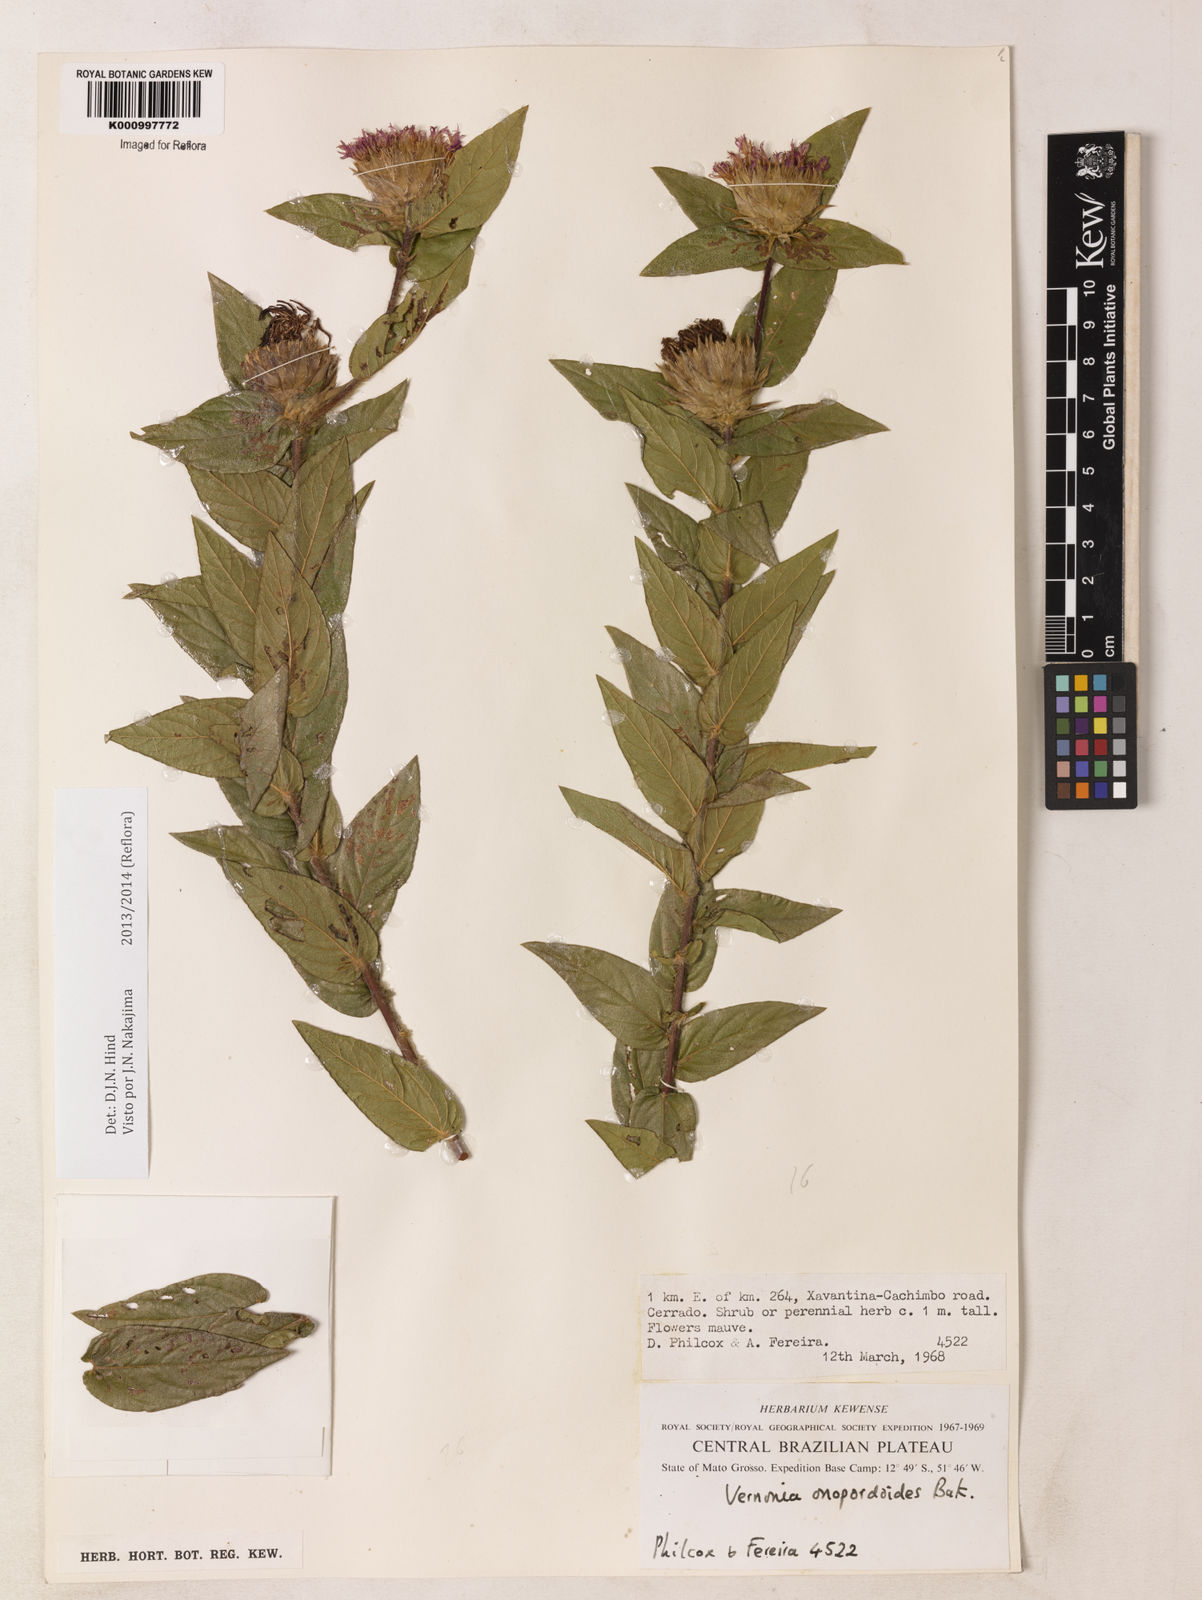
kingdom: Plantae
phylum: Tracheophyta
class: Magnoliopsida
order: Asterales
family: Asteraceae
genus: Lessingianthus
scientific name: Lessingianthus onopordioides
